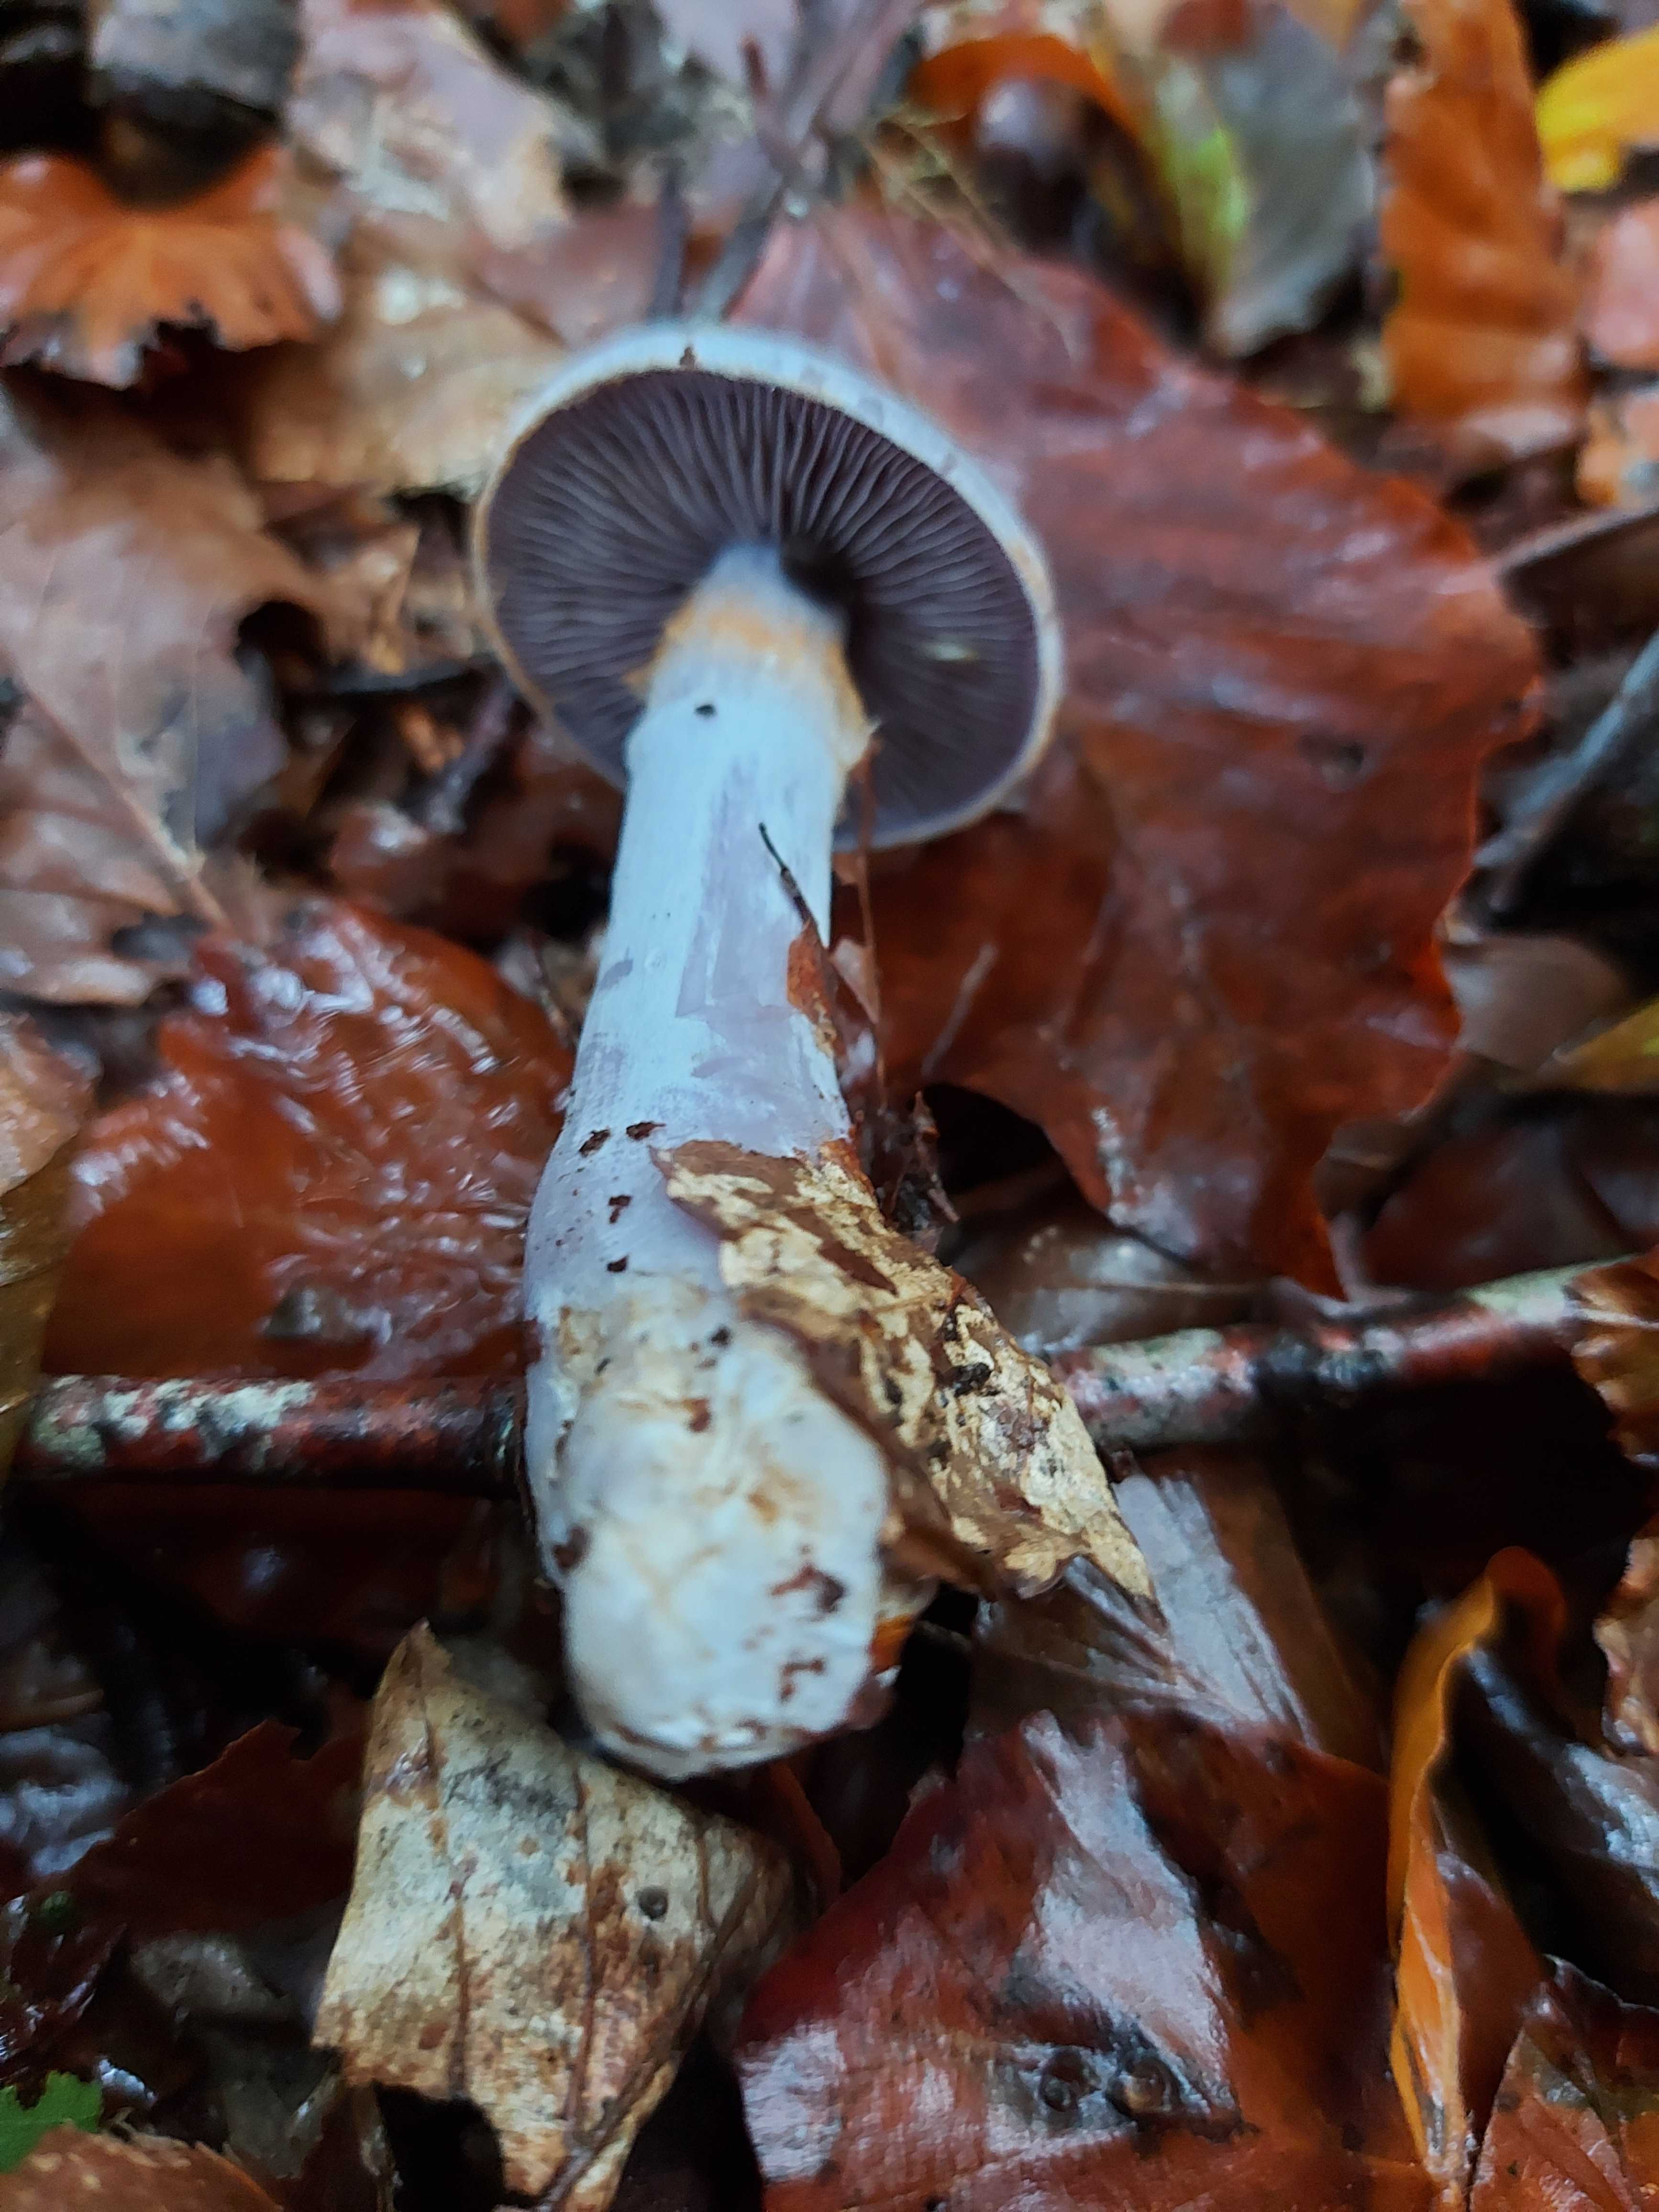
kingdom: Fungi
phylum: Basidiomycota
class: Agaricomycetes
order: Agaricales
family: Cortinariaceae
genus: Cortinarius
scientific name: Cortinarius alboviolaceus
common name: lysviolet slørhat
